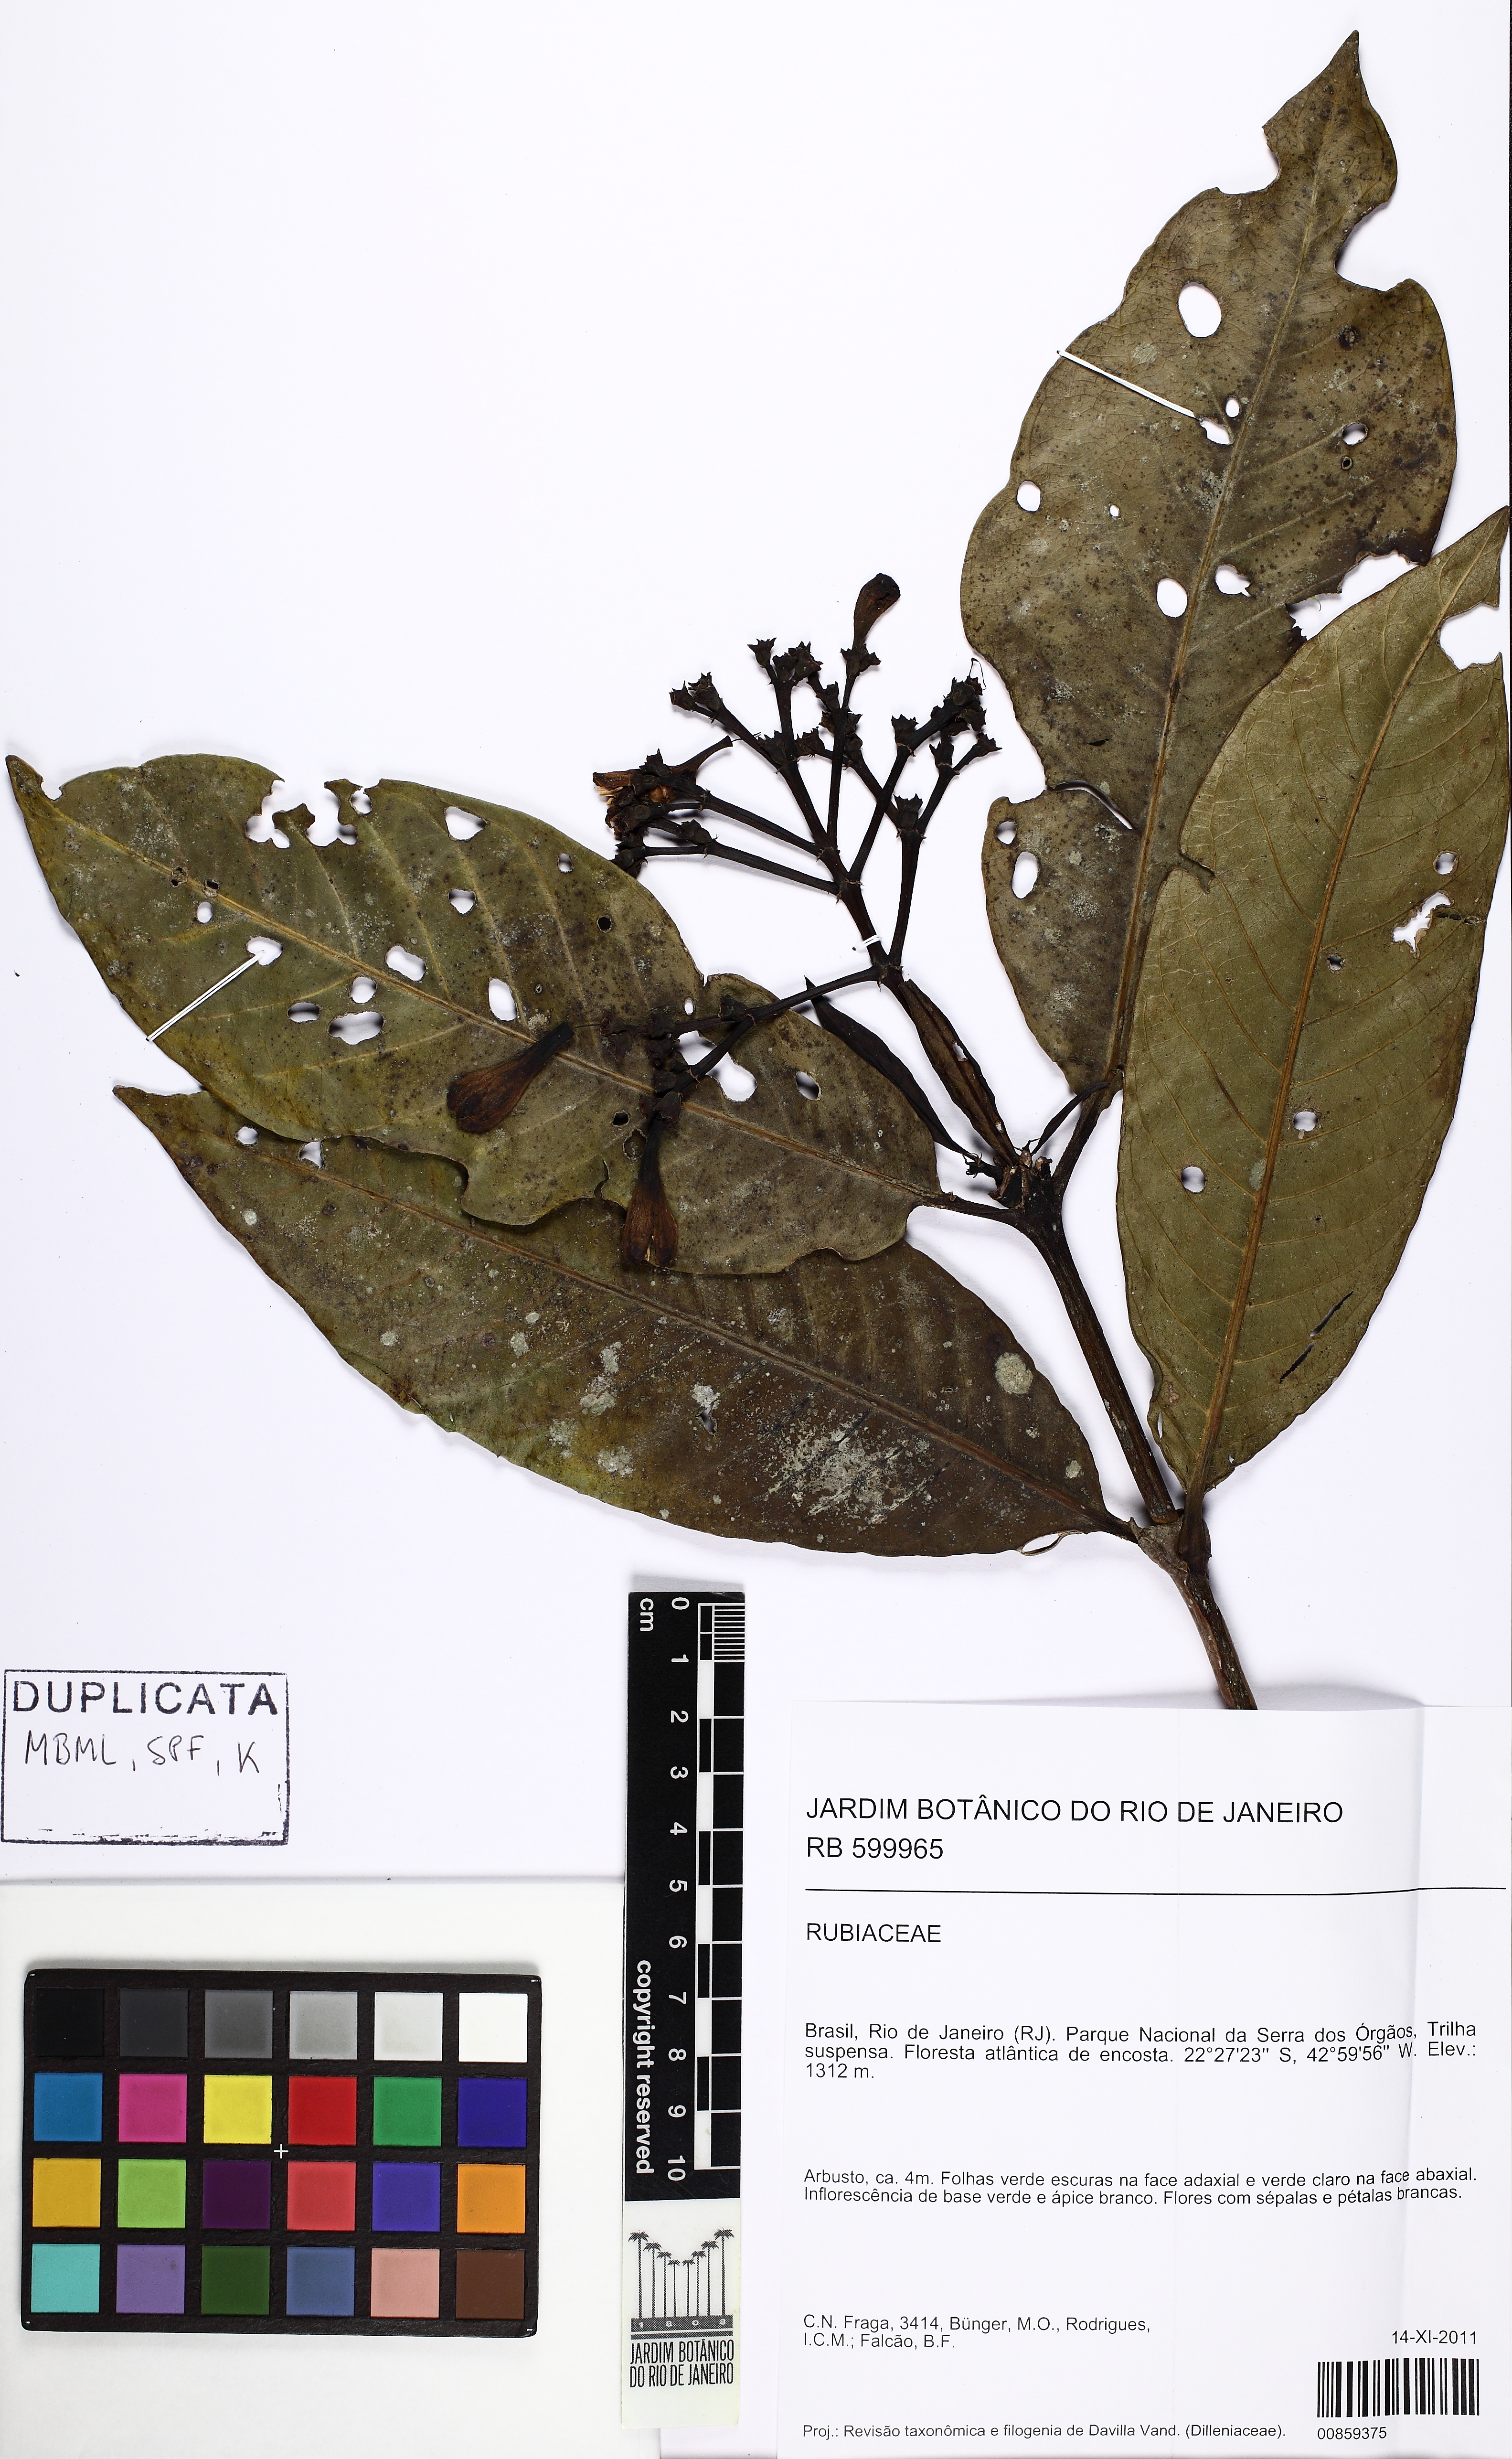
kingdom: Plantae
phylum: Tracheophyta
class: Magnoliopsida
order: Gentianales
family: Rubiaceae
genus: Rudgea
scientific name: Rudgea nobilis
